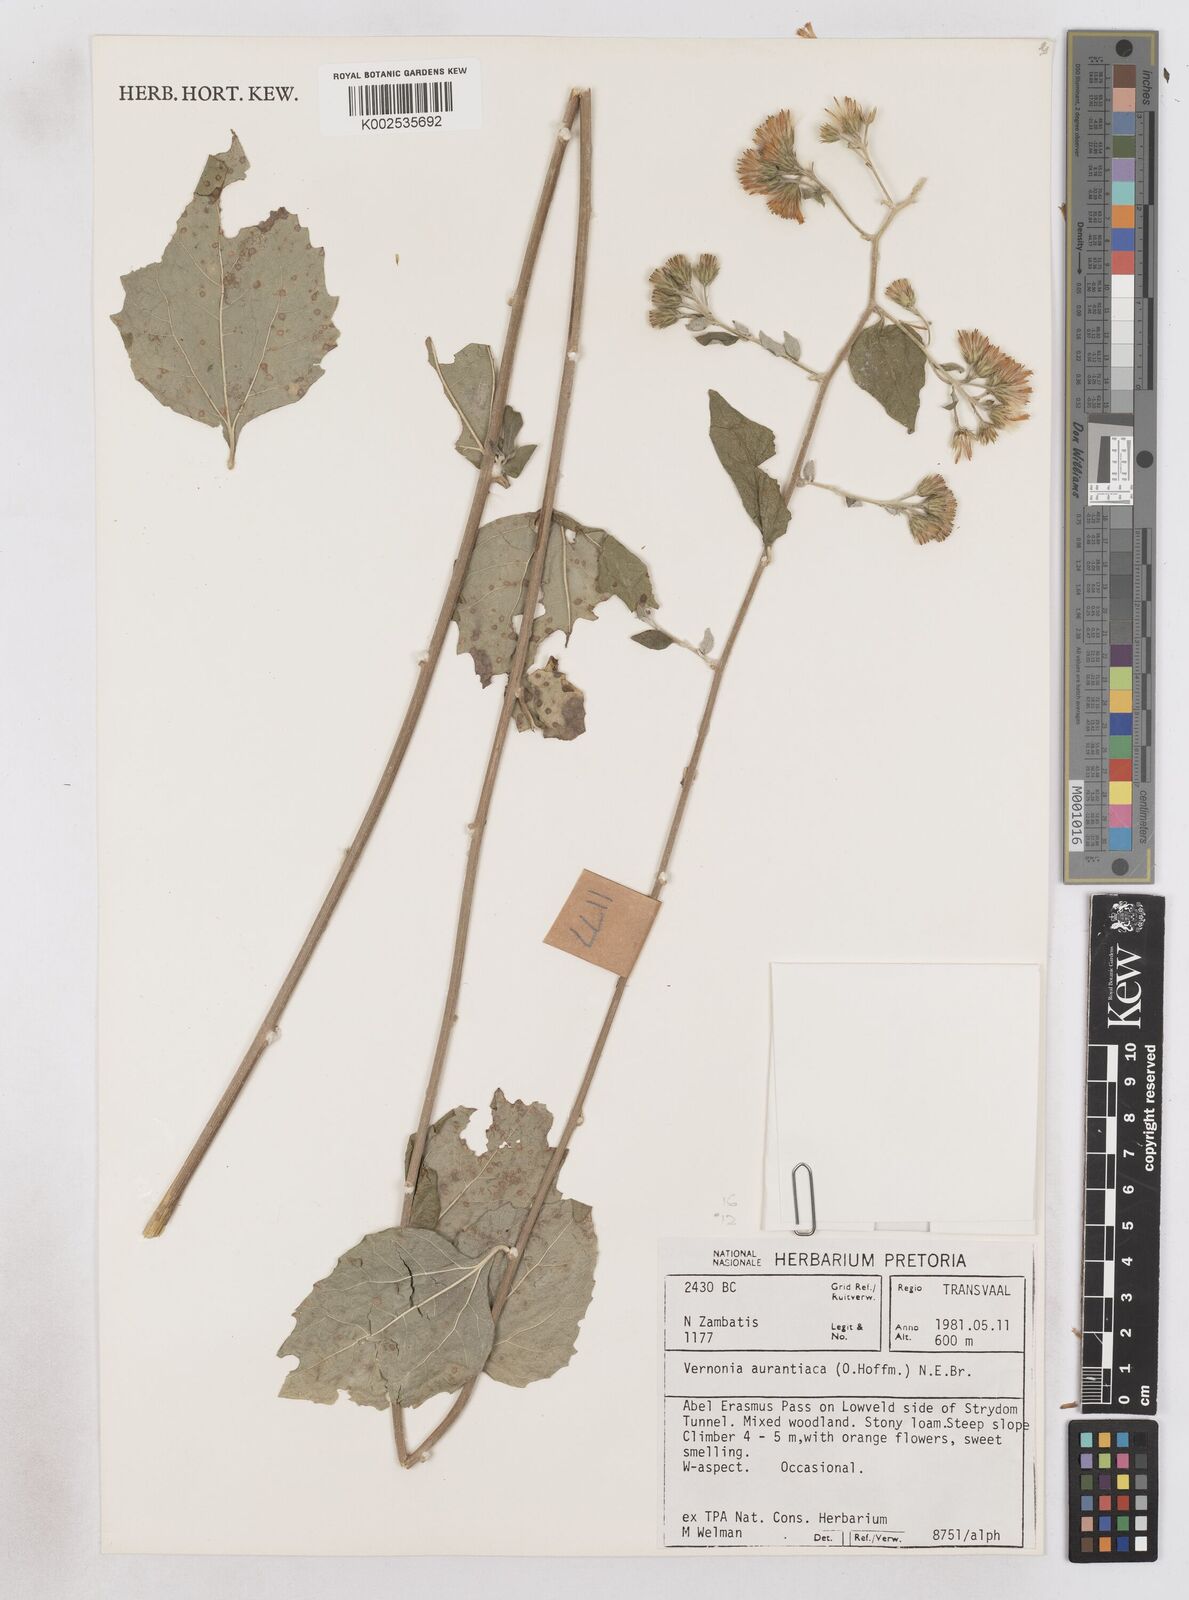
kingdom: Plantae
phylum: Tracheophyta
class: Magnoliopsida
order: Asterales
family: Asteraceae
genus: Distephanus
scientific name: Distephanus
